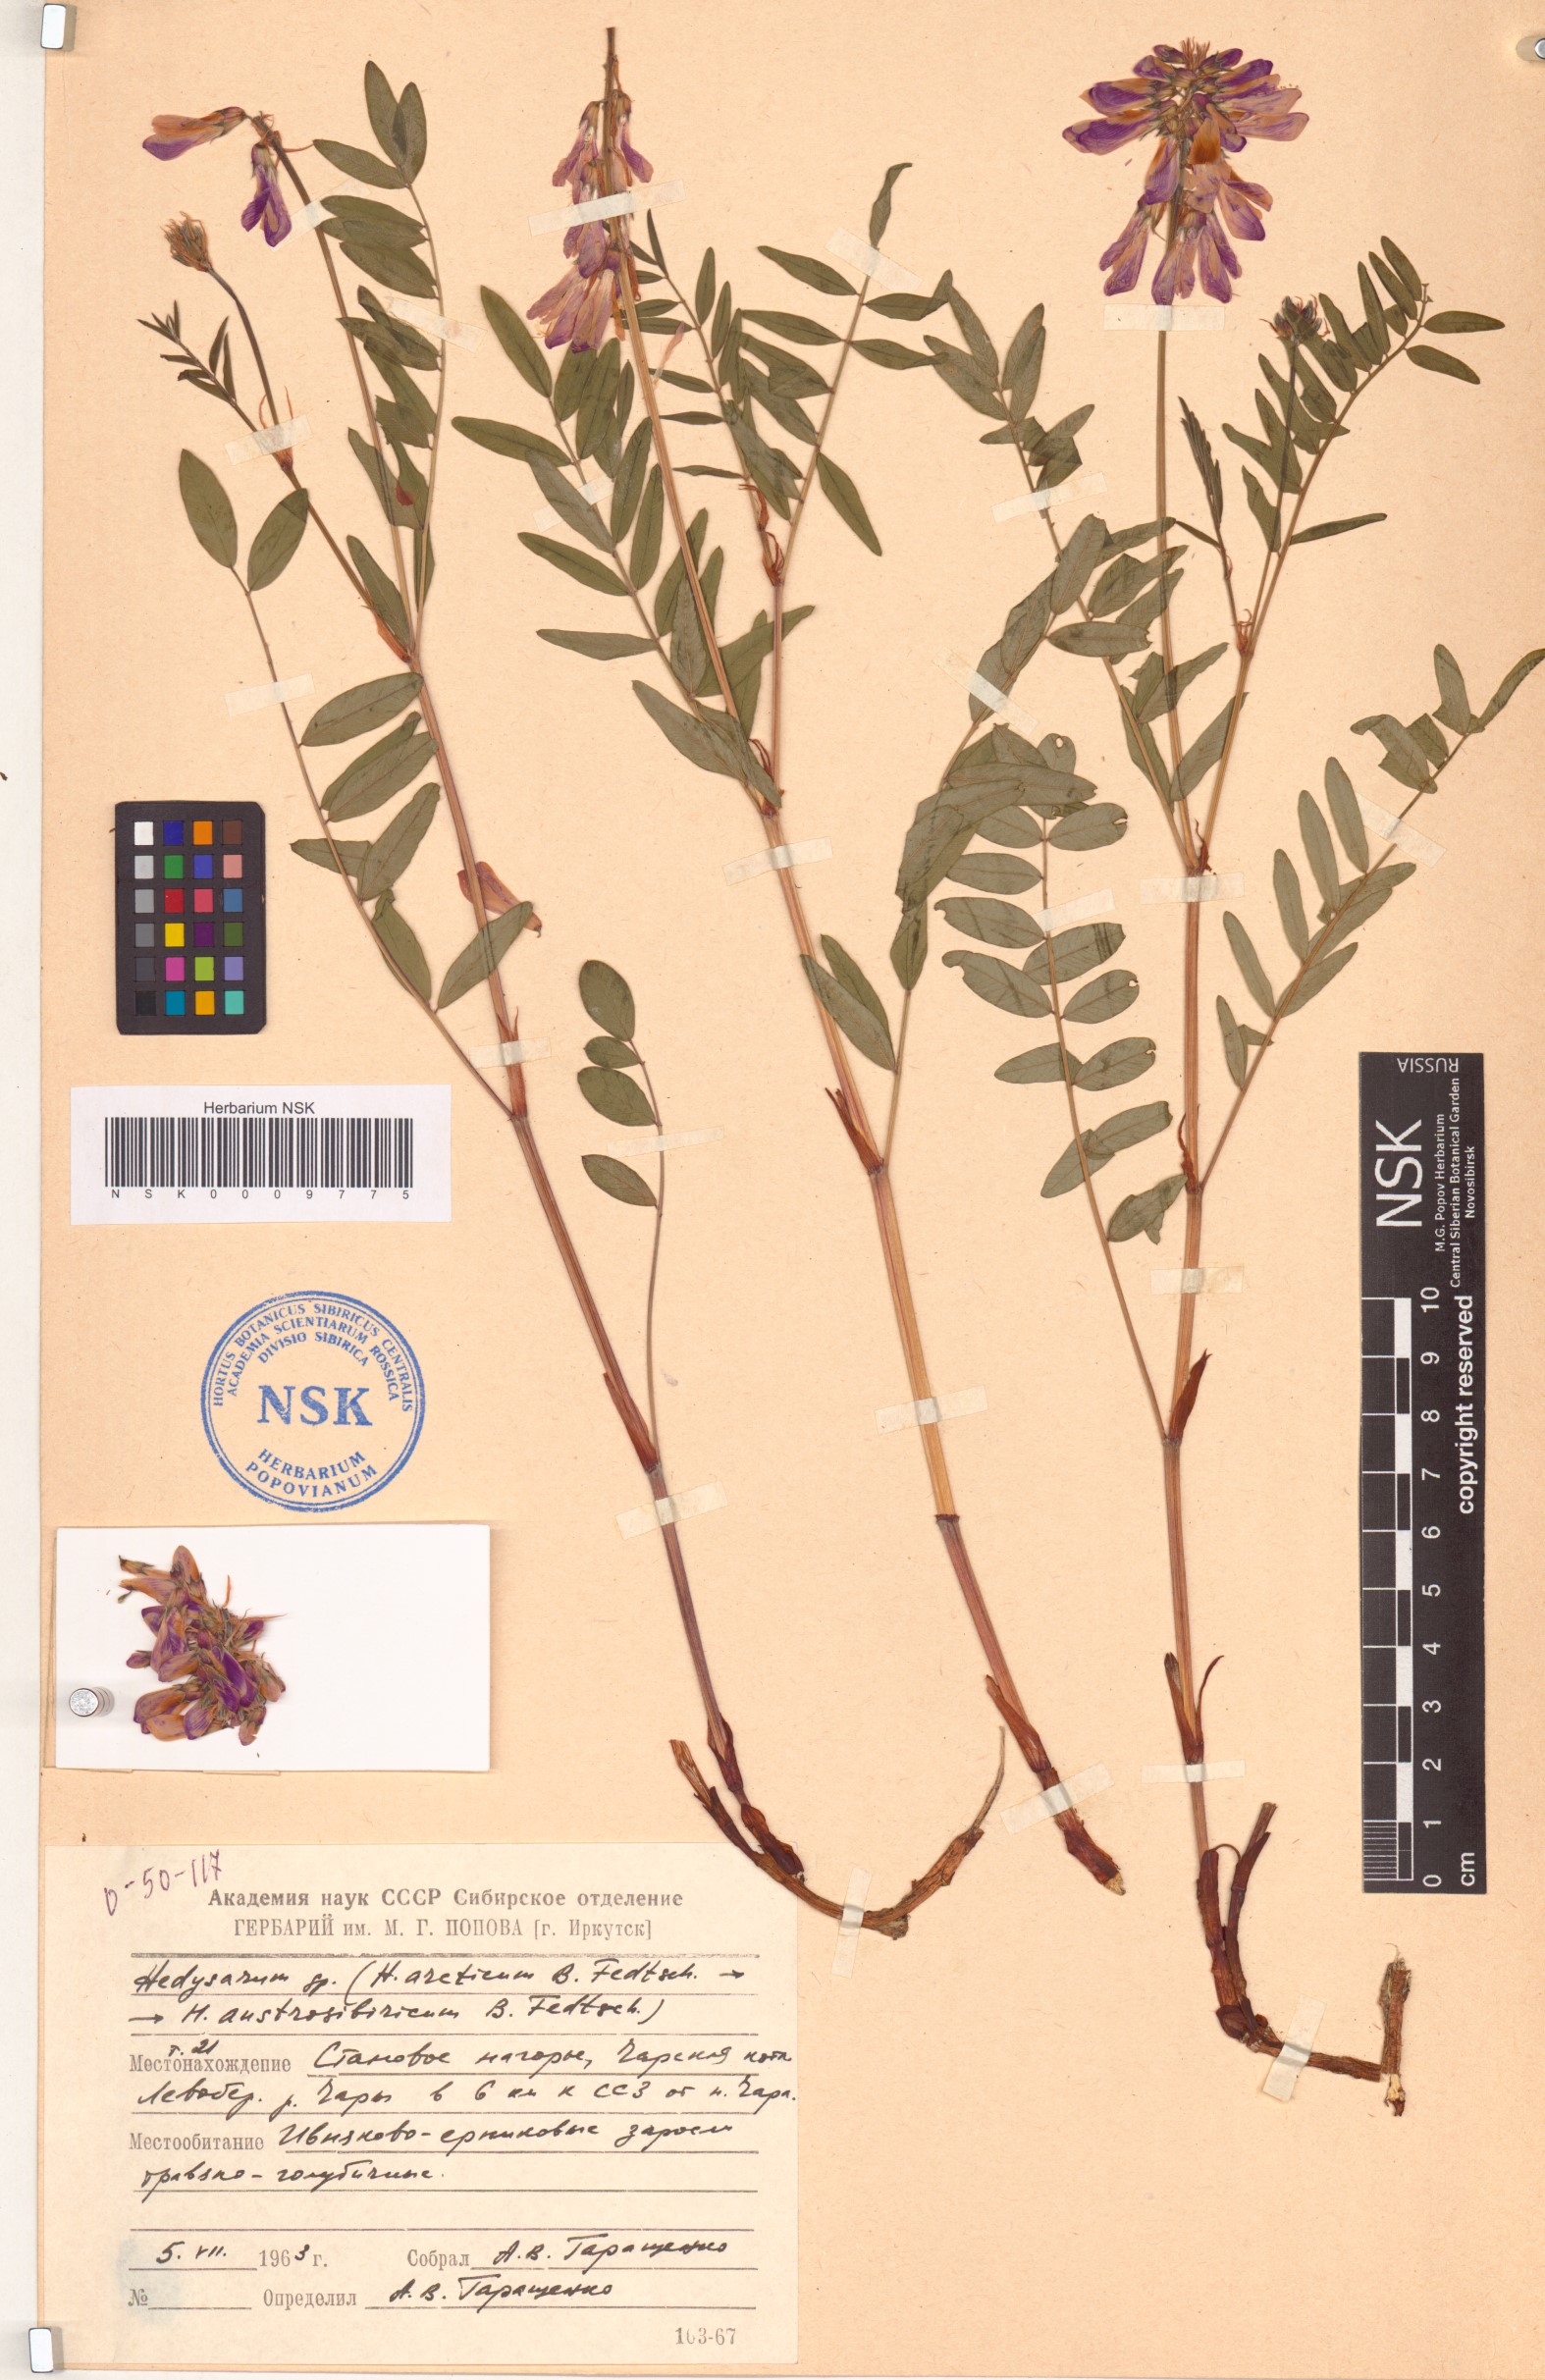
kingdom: Plantae
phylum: Tracheophyta
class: Magnoliopsida
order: Fabales
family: Fabaceae
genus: Hedysarum
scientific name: Hedysarum hedysaroides
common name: Alpine french-honeysuckle
